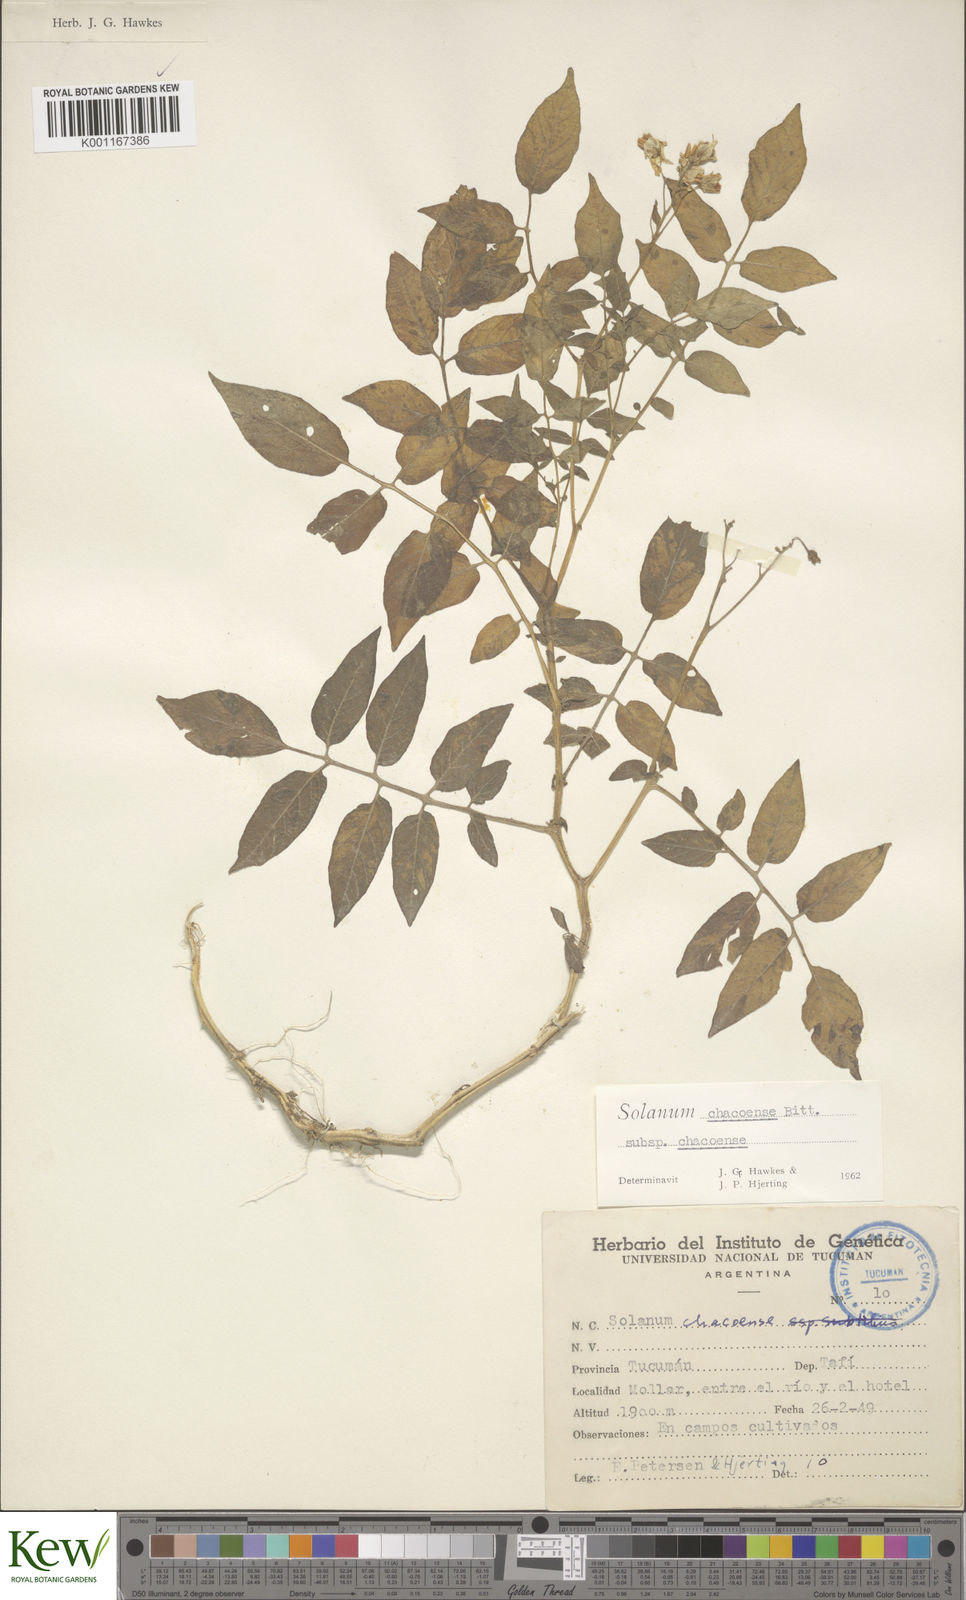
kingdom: Plantae
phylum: Tracheophyta
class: Magnoliopsida
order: Solanales
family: Solanaceae
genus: Solanum
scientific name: Solanum chacoense
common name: Chaco potato
